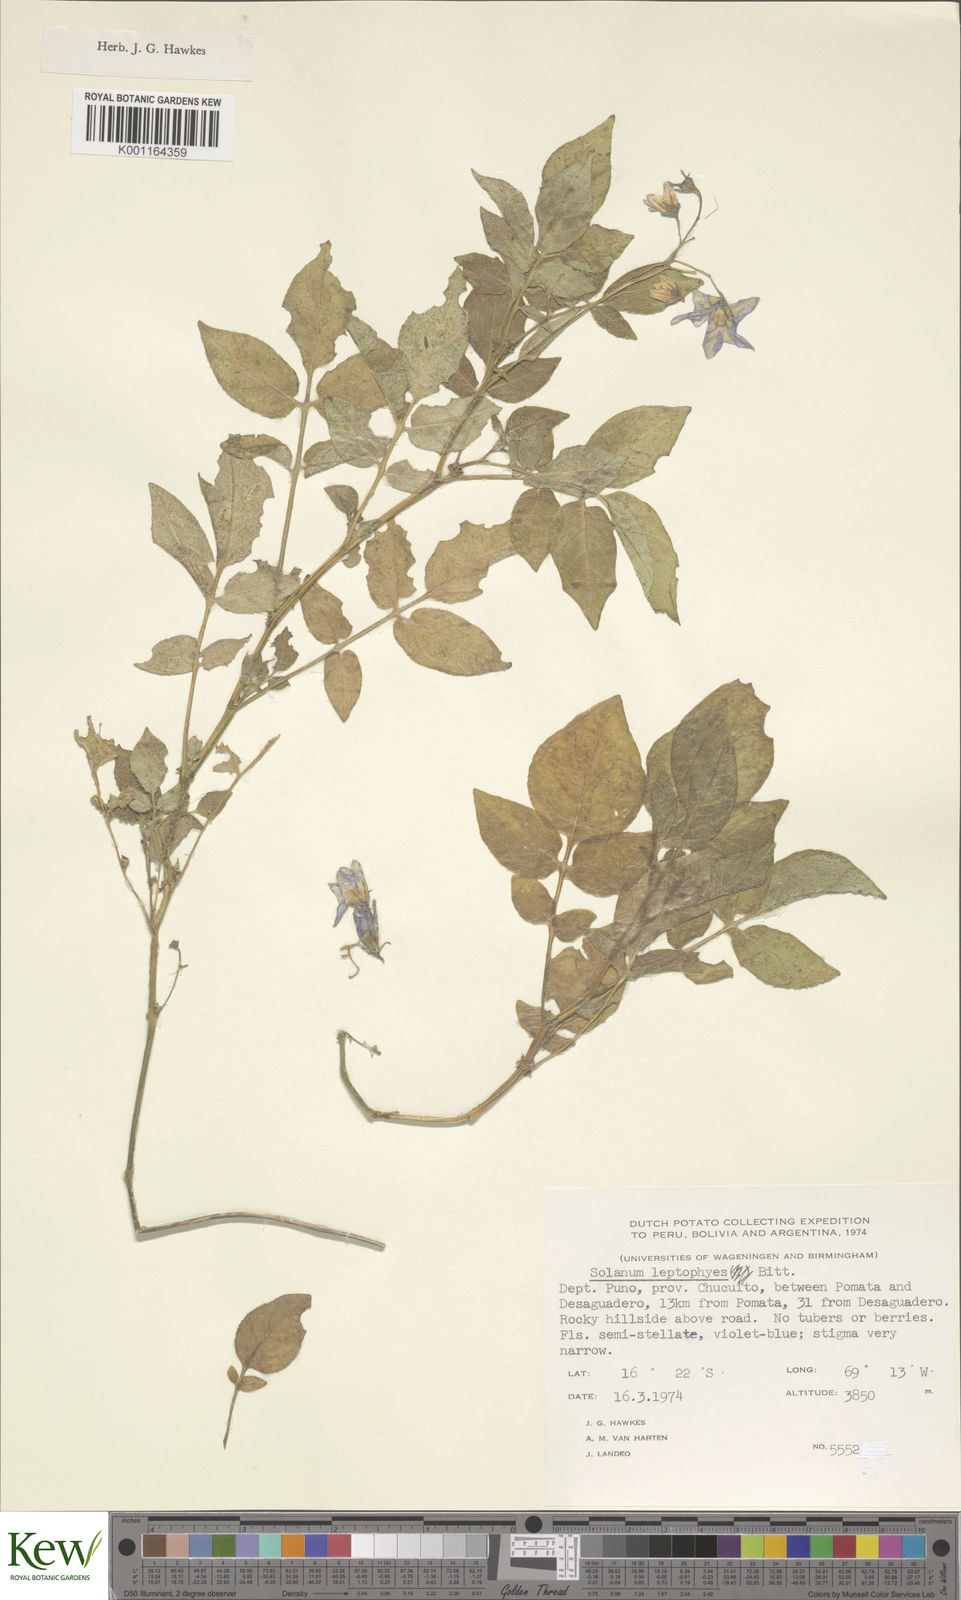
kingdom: Plantae
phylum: Tracheophyta
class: Magnoliopsida
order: Solanales
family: Solanaceae
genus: Solanum
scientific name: Solanum brevicaule
